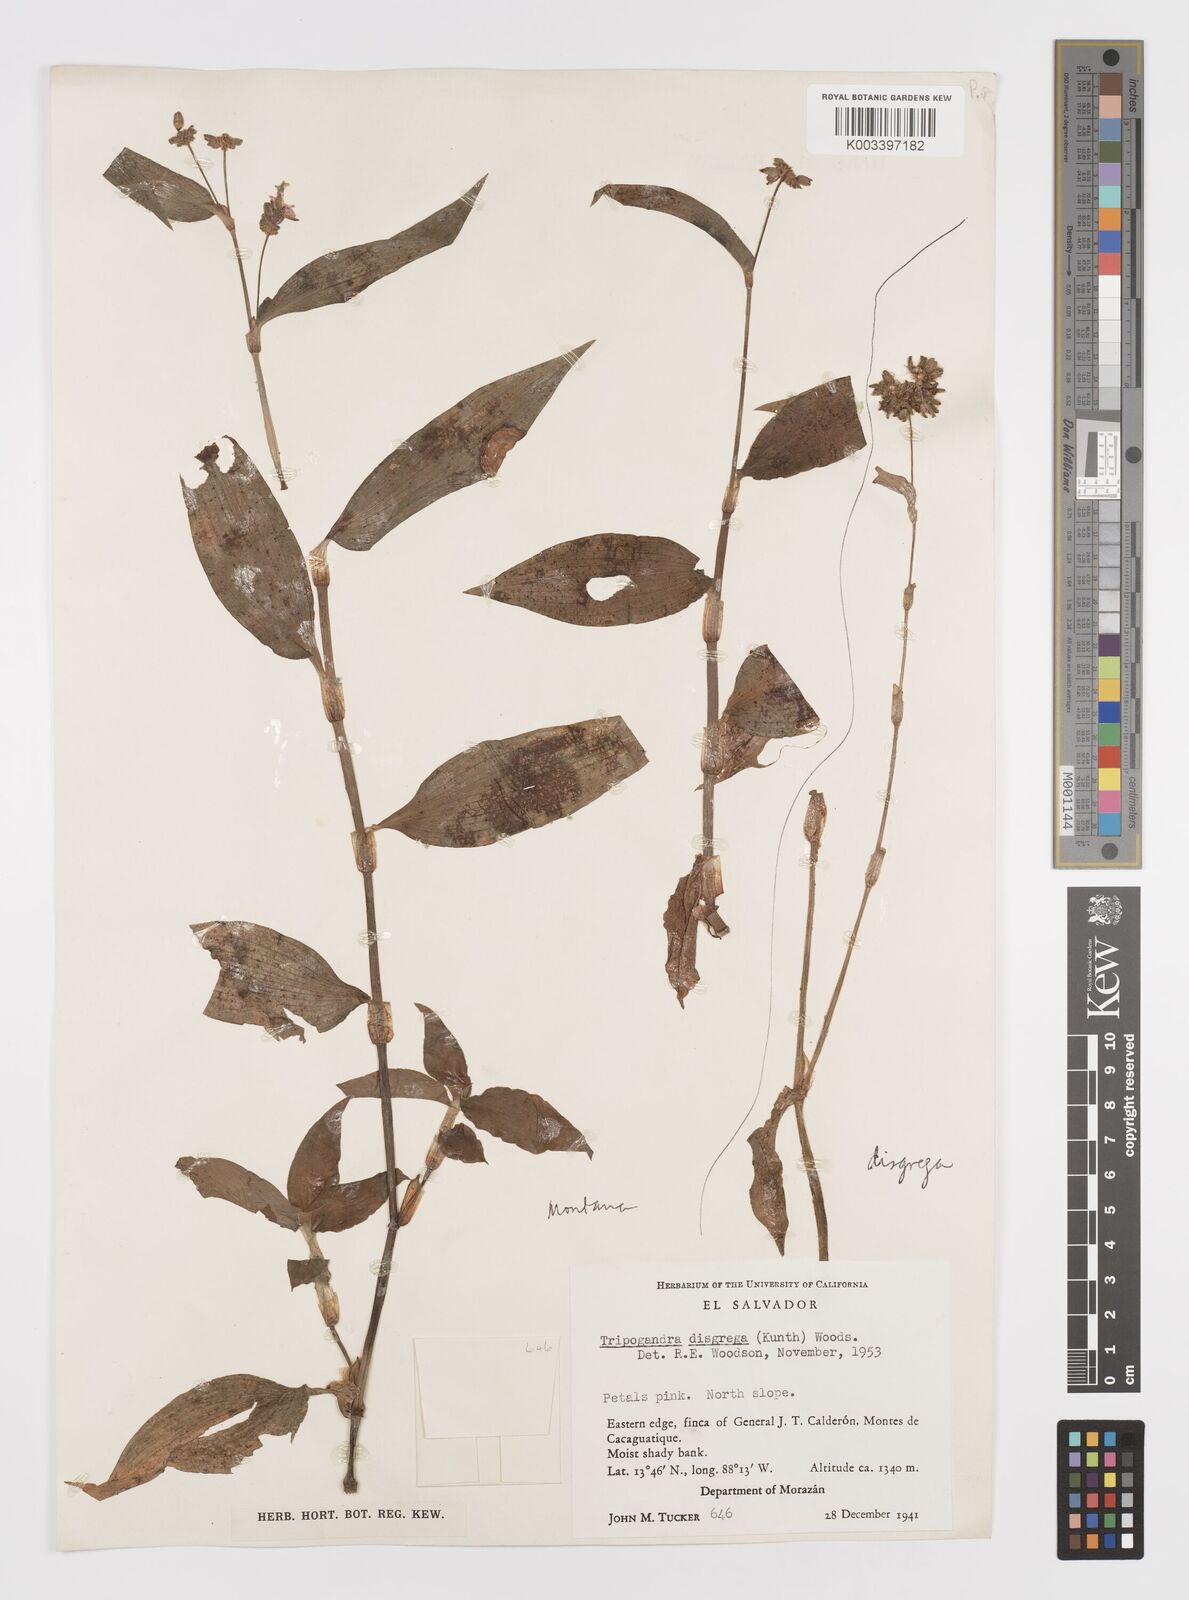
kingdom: Plantae
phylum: Tracheophyta
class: Liliopsida
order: Commelinales
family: Commelinaceae
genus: Callisia
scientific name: Callisia disgrega
